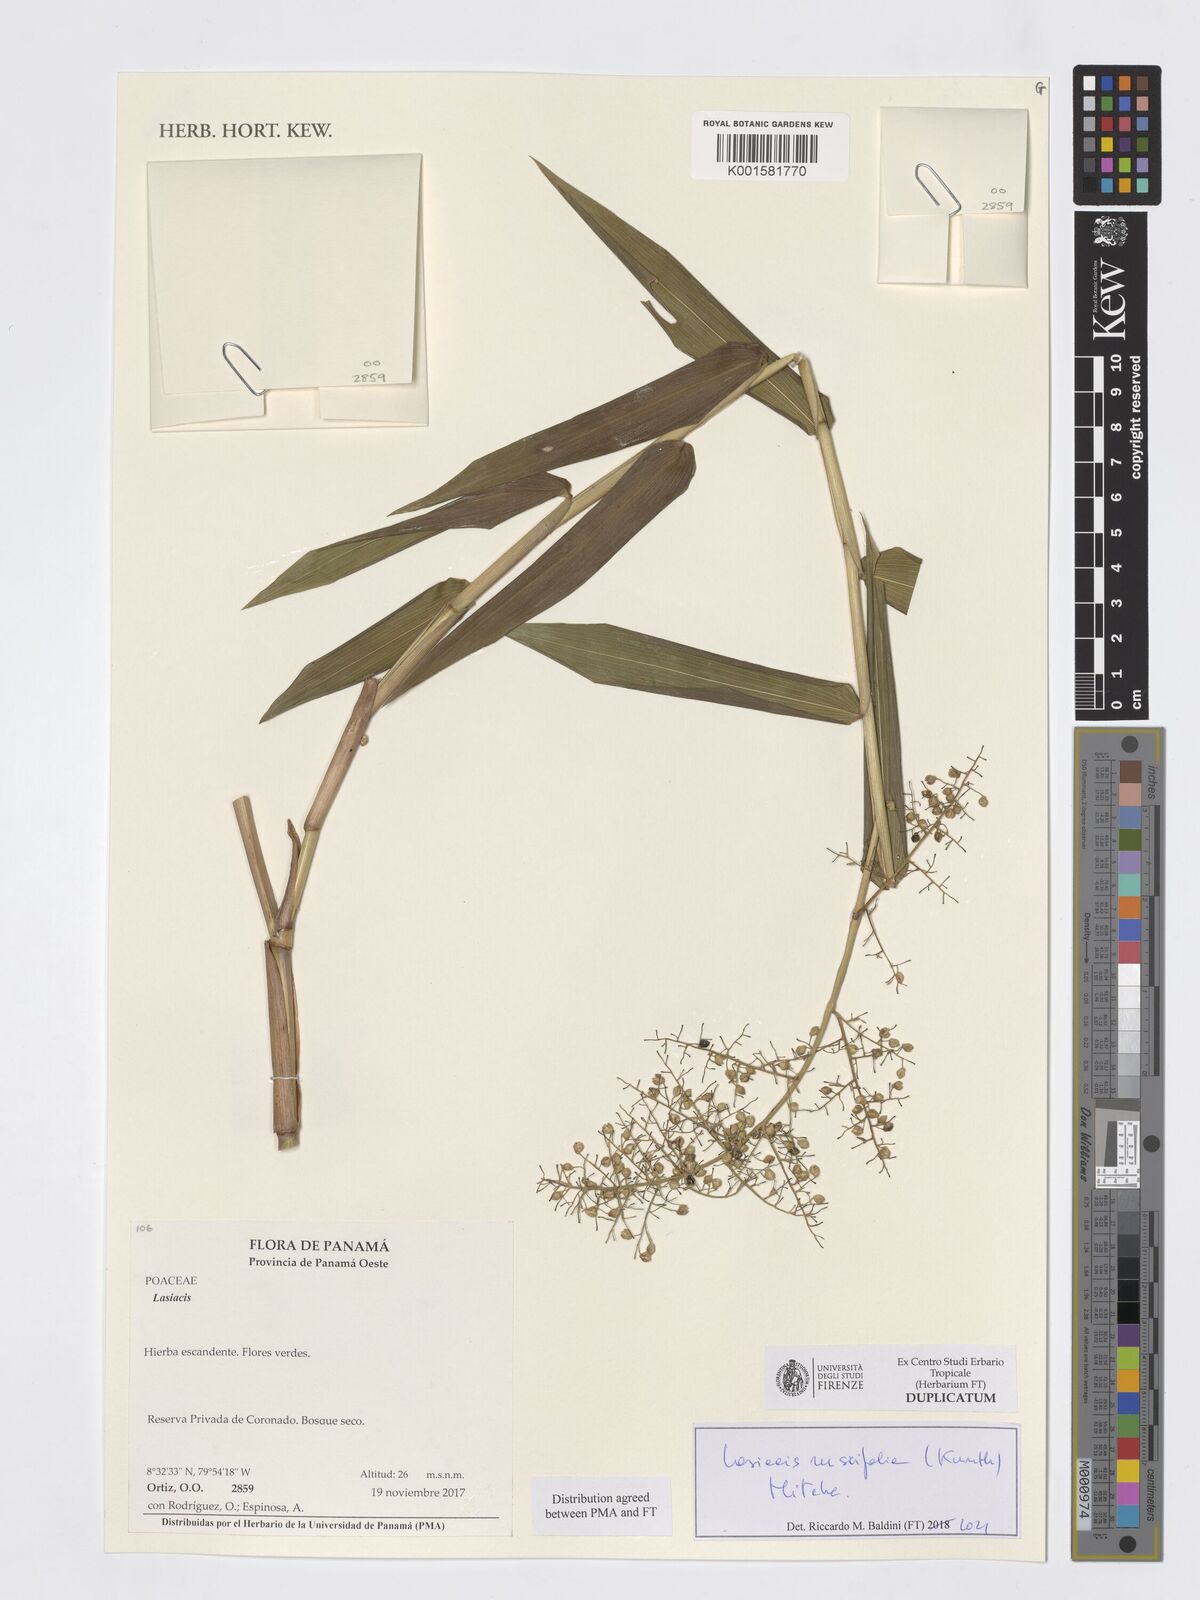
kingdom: Plantae
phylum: Tracheophyta
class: Liliopsida
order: Poales
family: Poaceae
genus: Lasiacis
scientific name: Lasiacis ruscifolia
